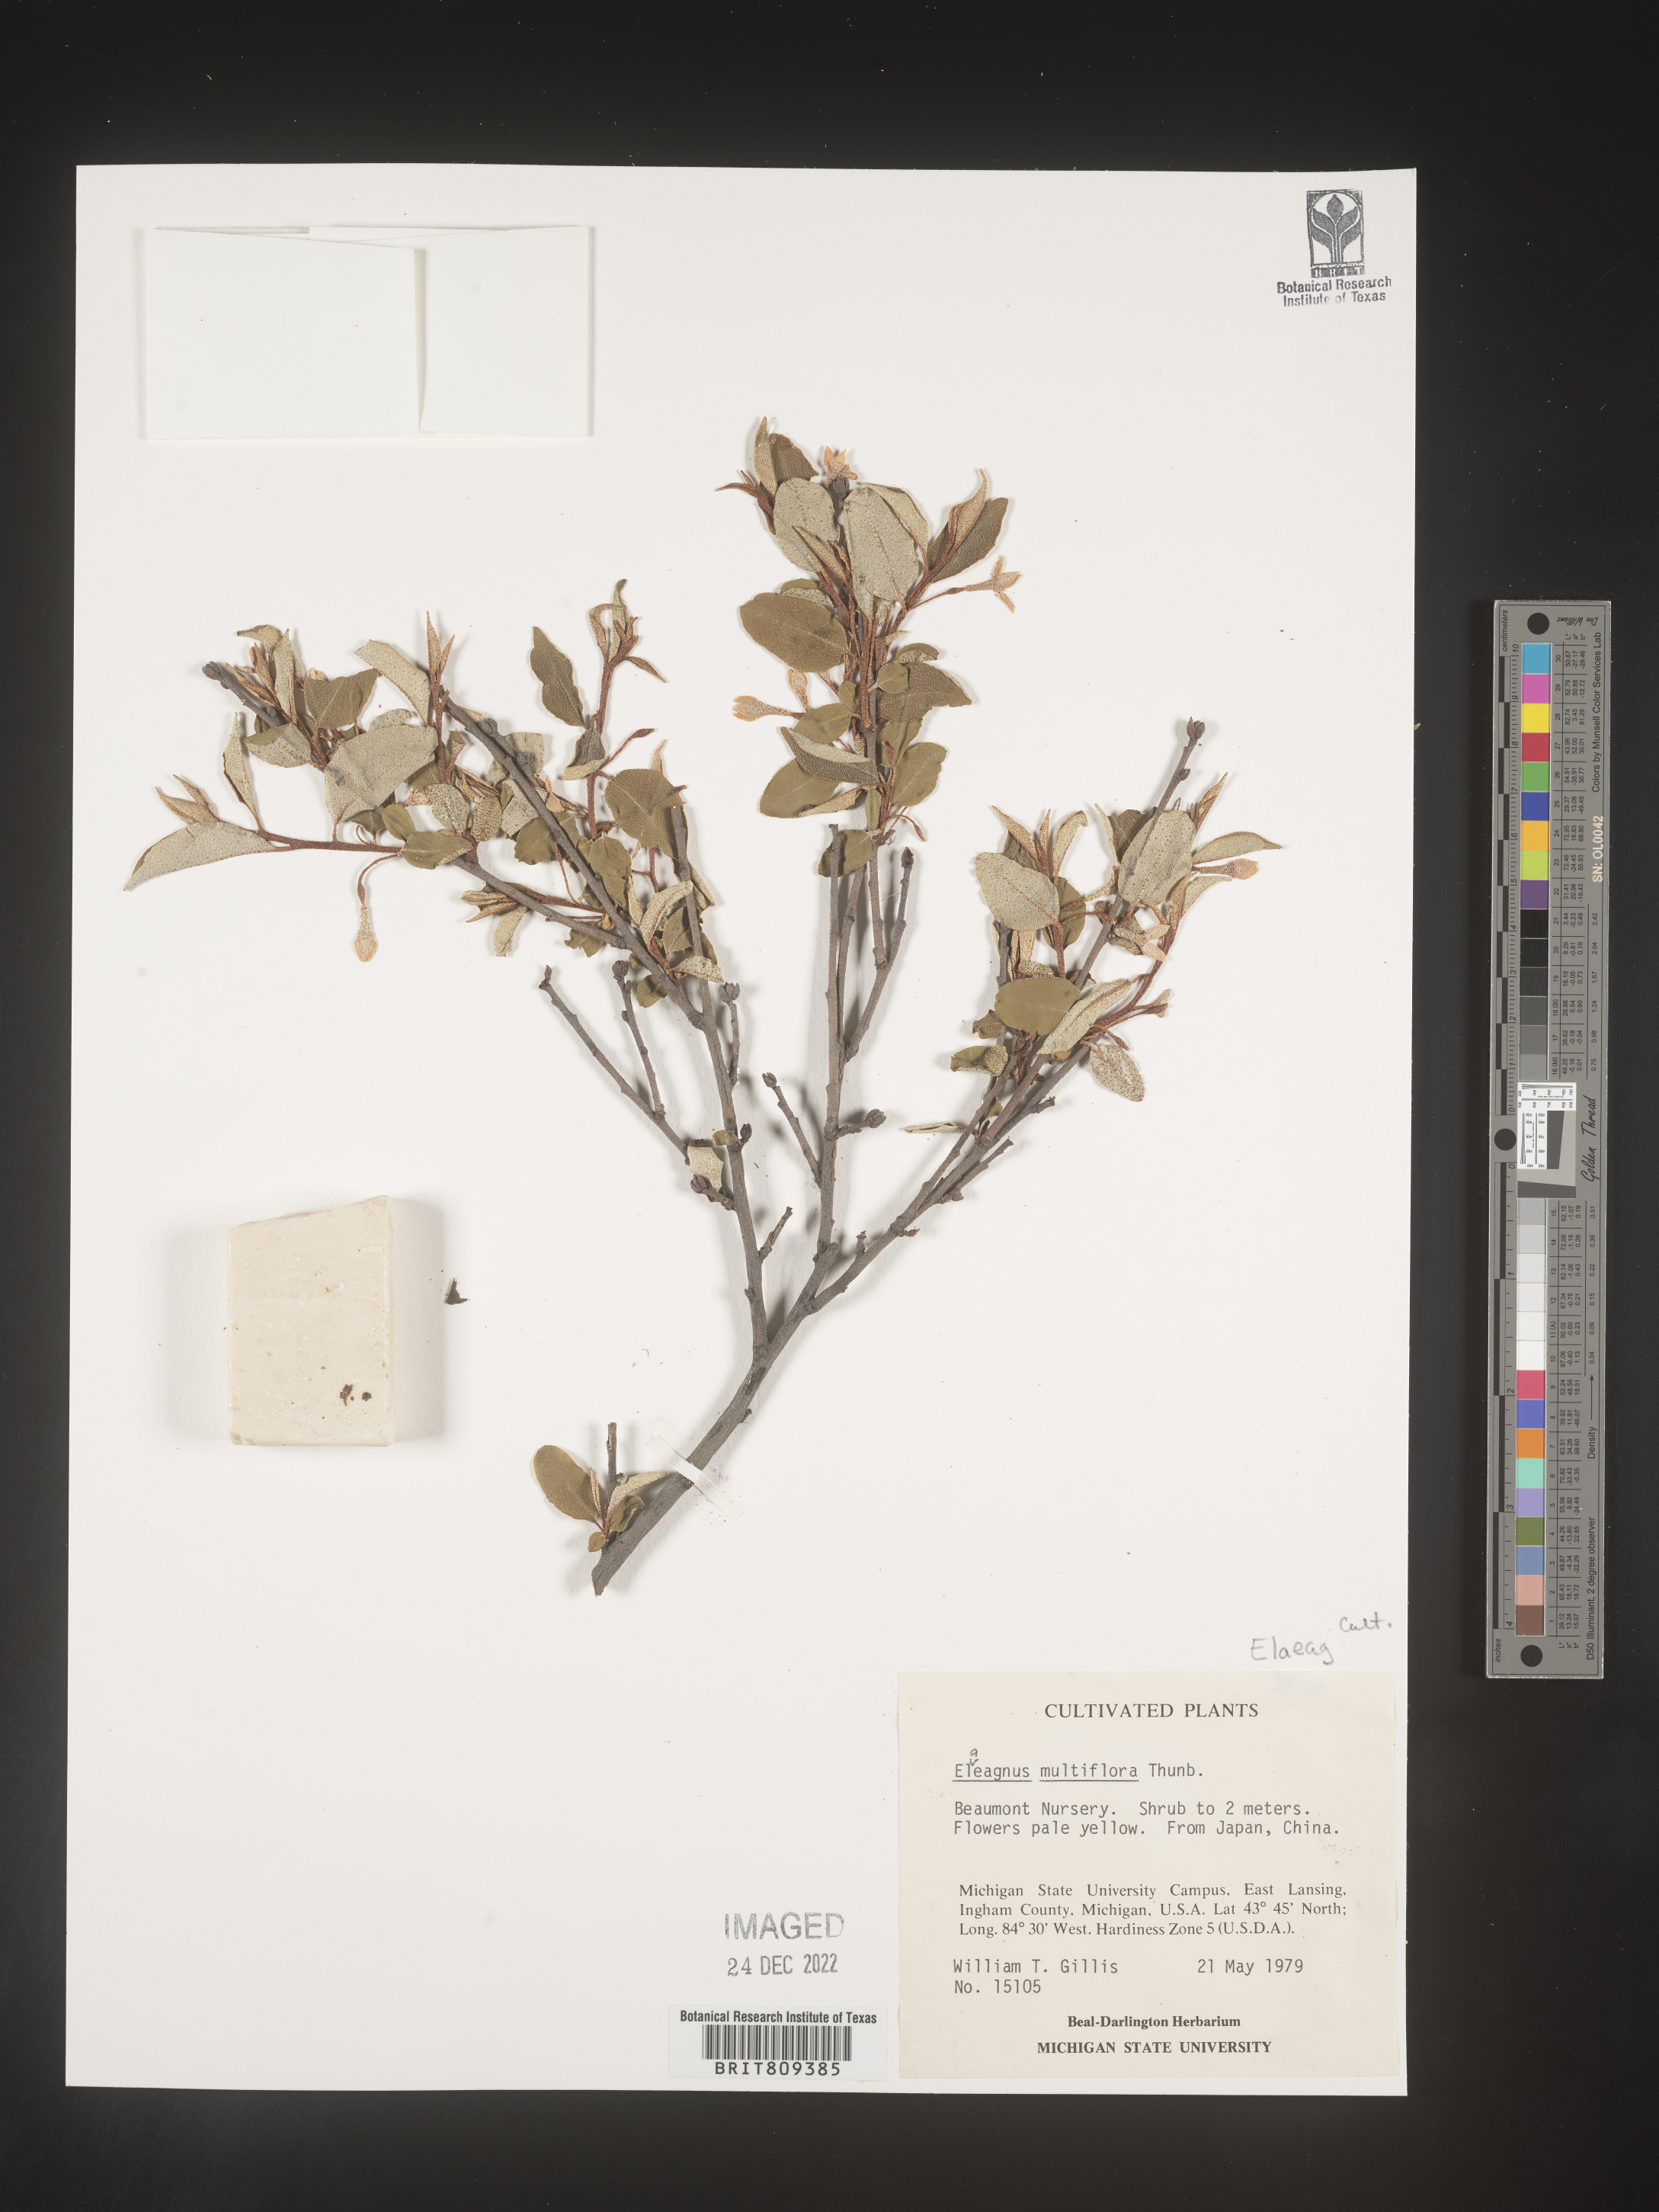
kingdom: Plantae
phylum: Tracheophyta
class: Magnoliopsida
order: Rosales
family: Elaeagnaceae
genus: Elaeagnus
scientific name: Elaeagnus
